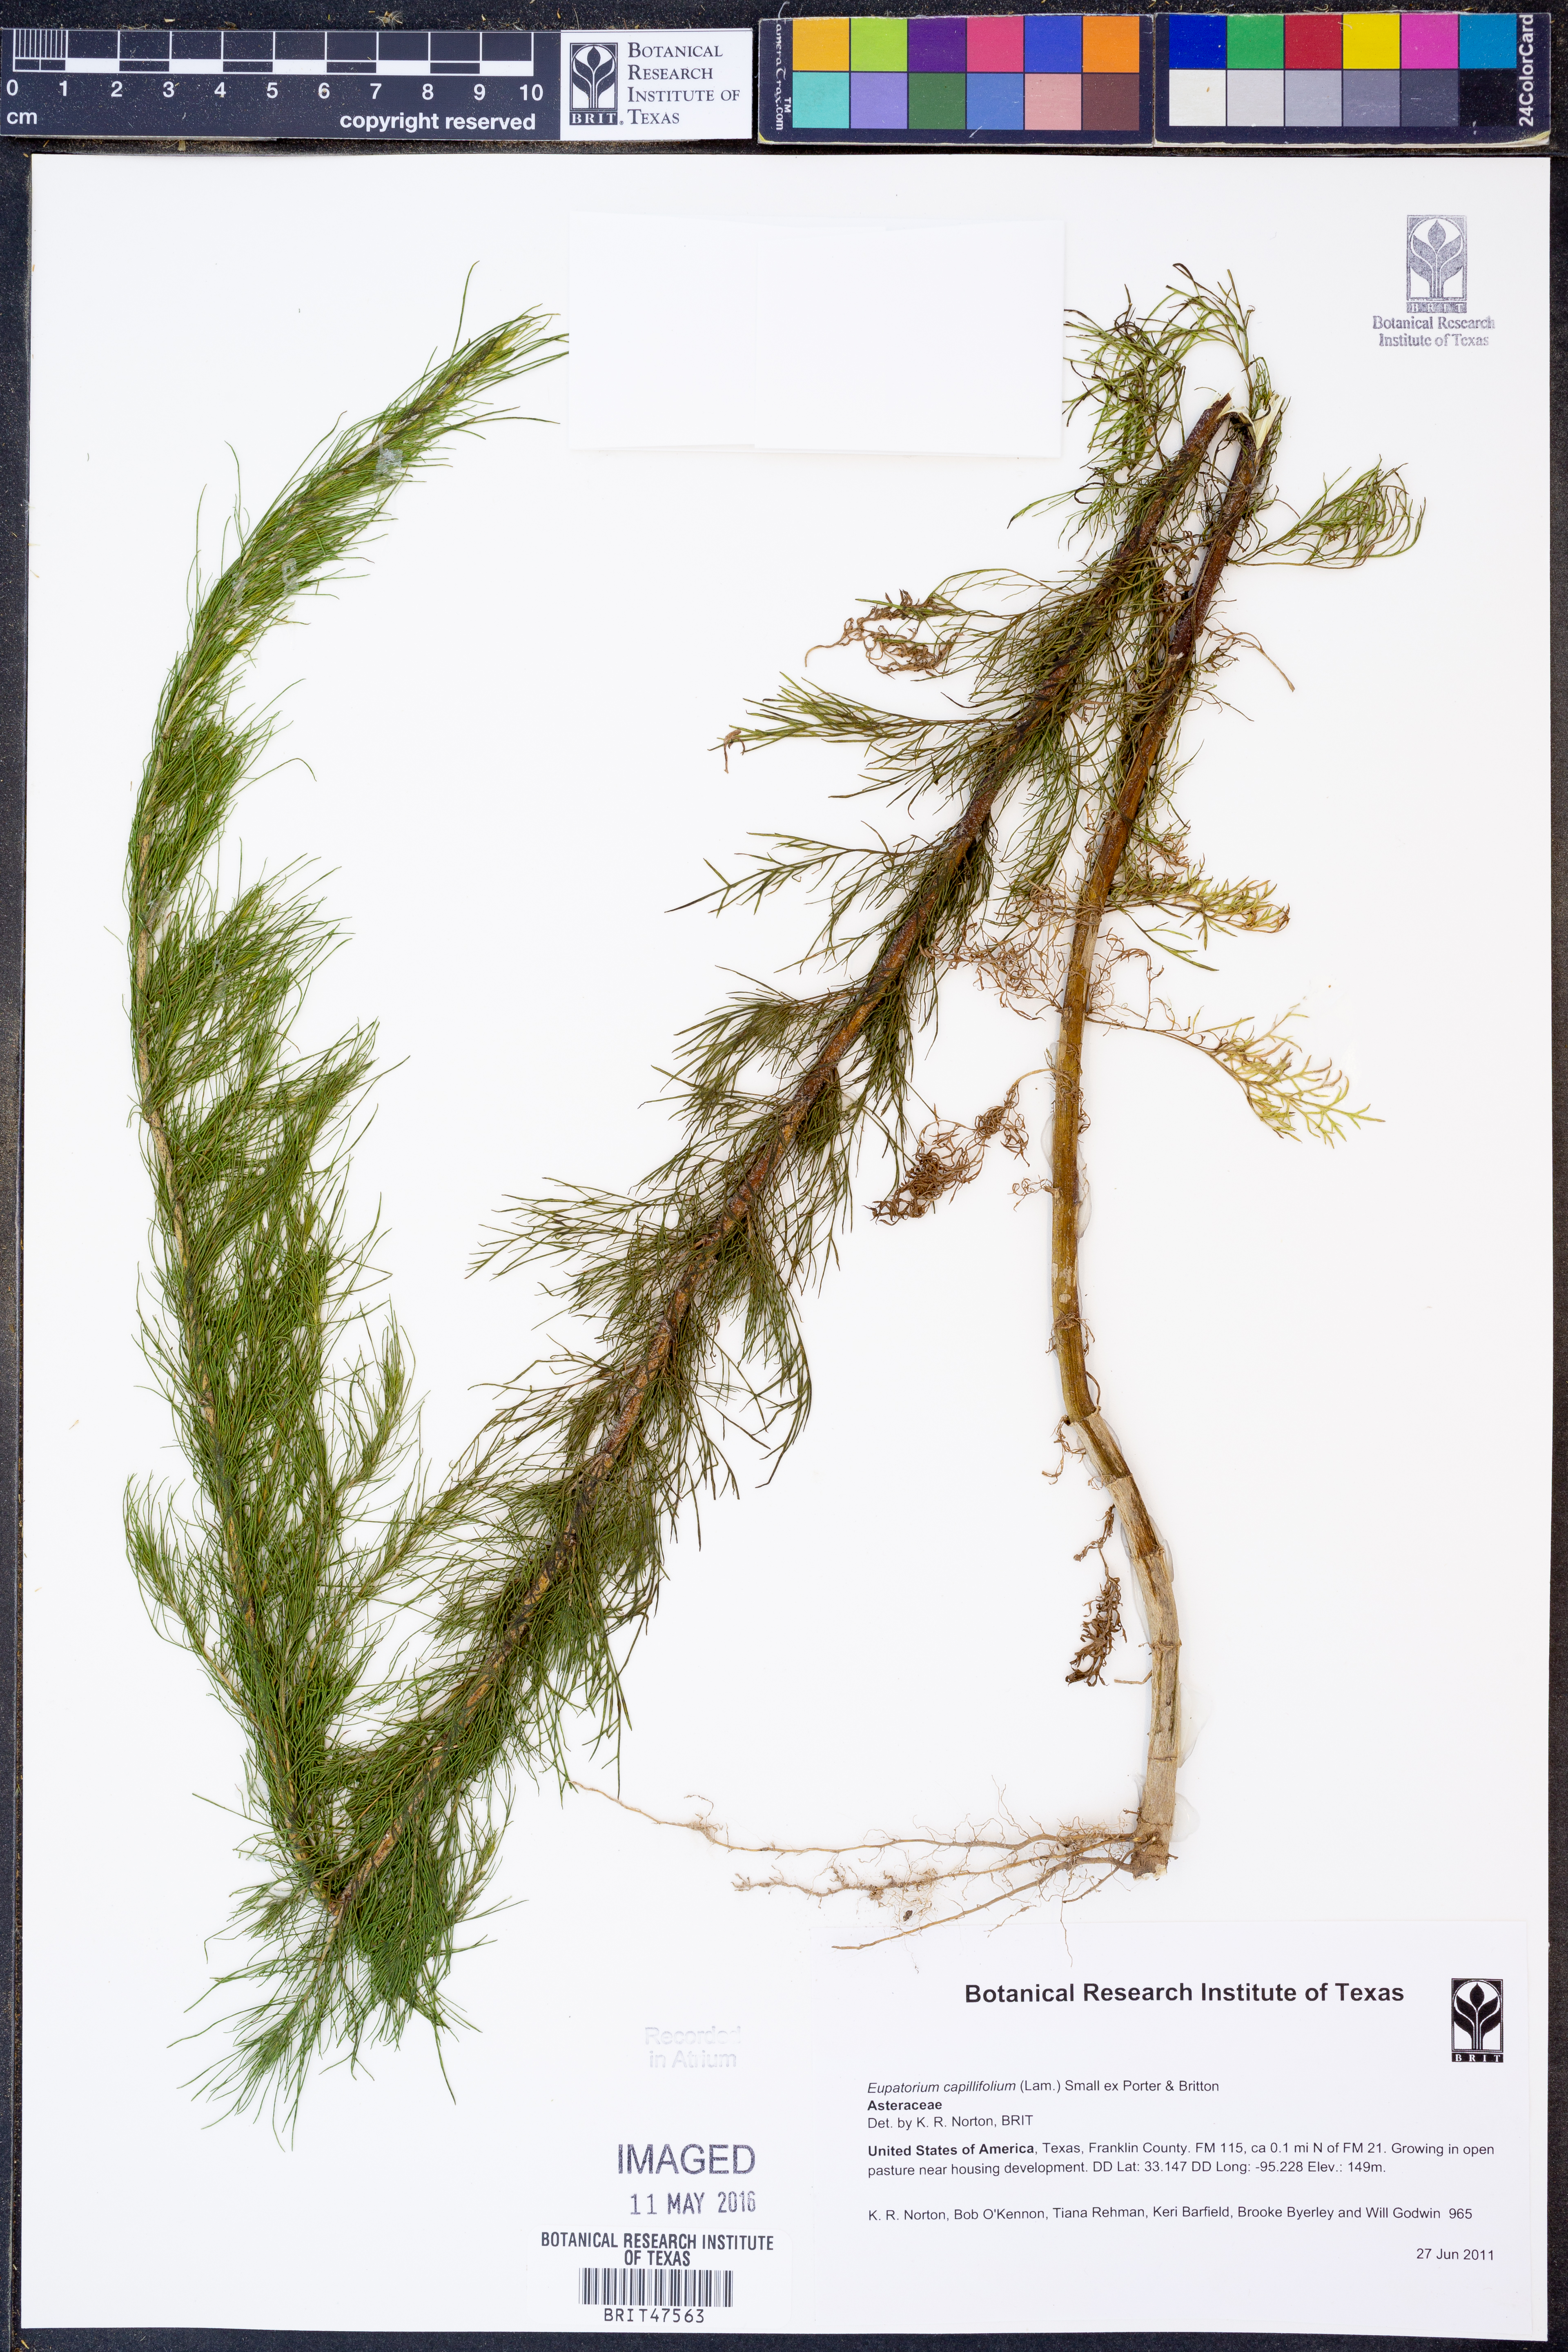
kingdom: Plantae
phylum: Tracheophyta
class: Magnoliopsida
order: Asterales
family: Asteraceae
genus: Eupatorium
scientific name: Eupatorium capillifolium
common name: Dog-fennel
